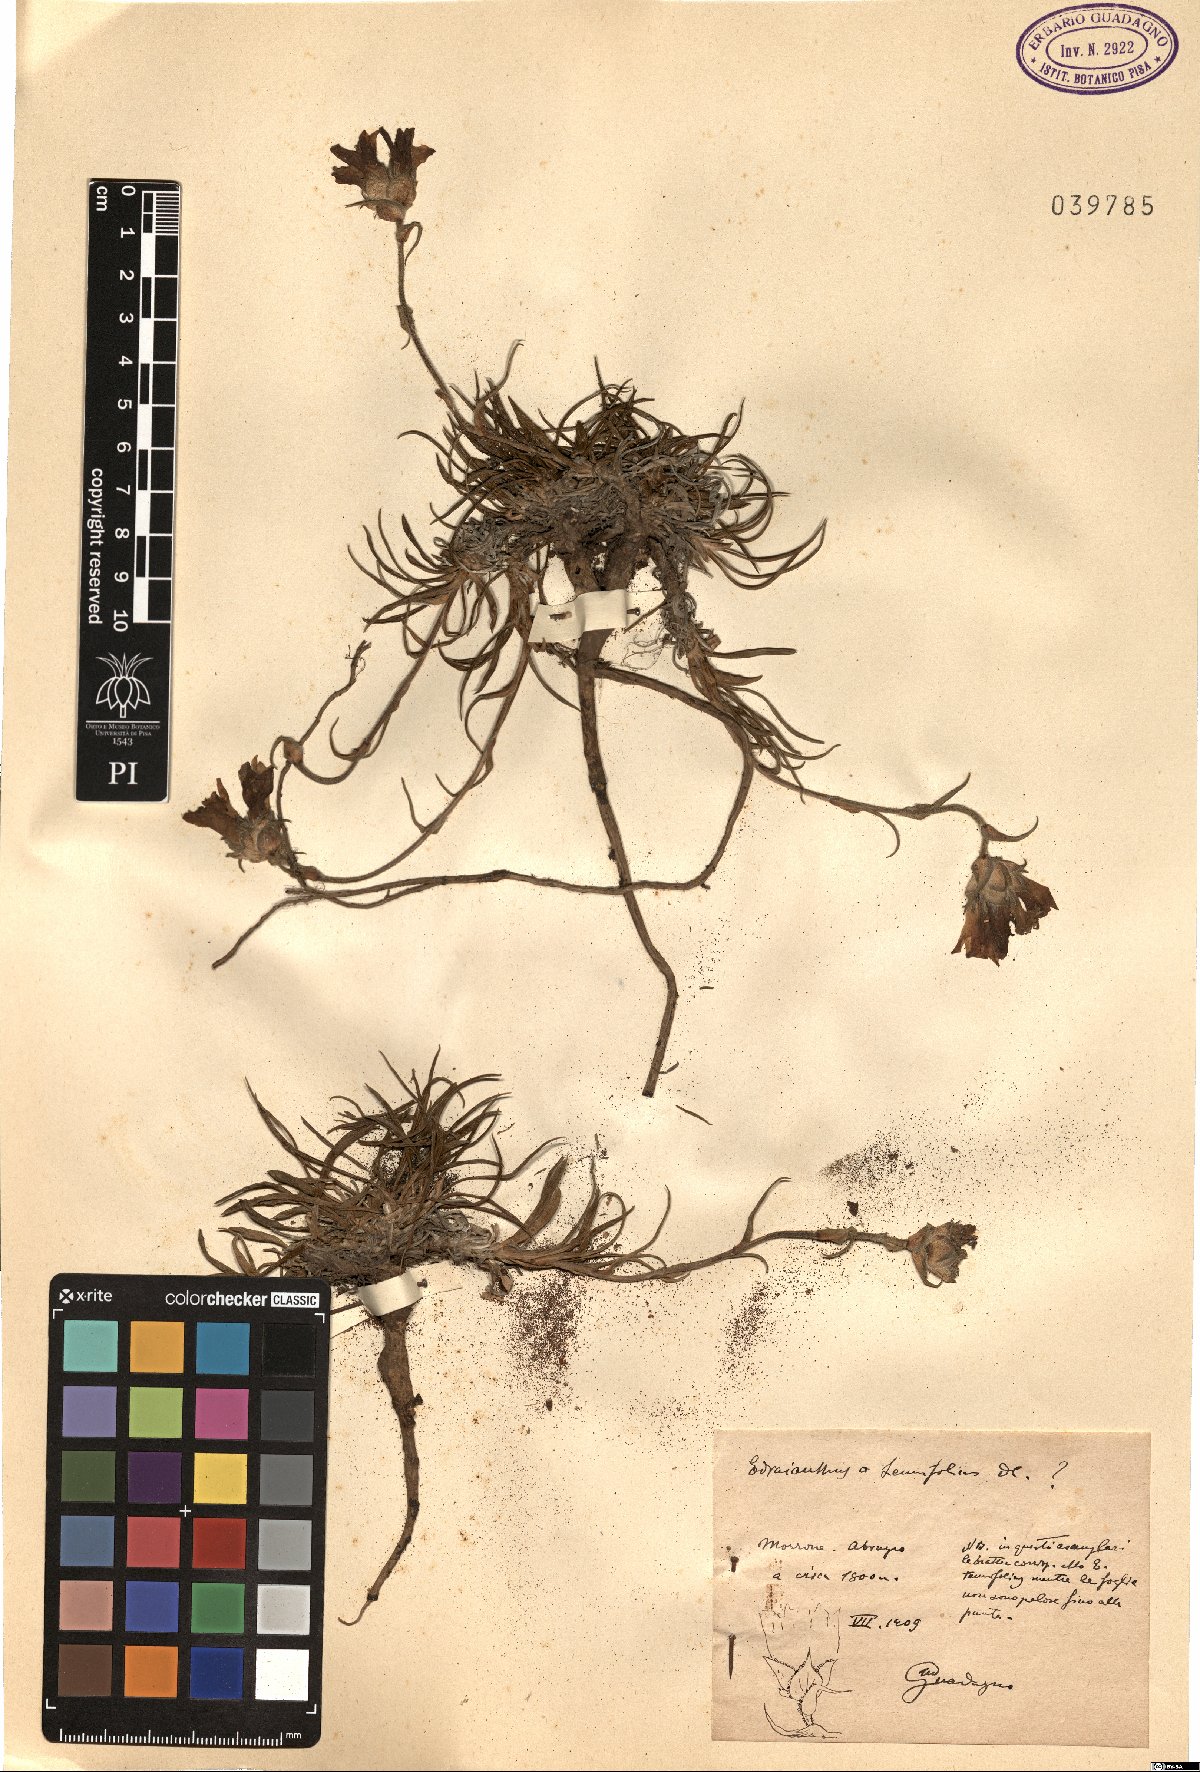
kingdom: Plantae
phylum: Tracheophyta
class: Magnoliopsida
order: Asterales
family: Campanulaceae
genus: Edraianthus
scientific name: Edraianthus tenuifolius
